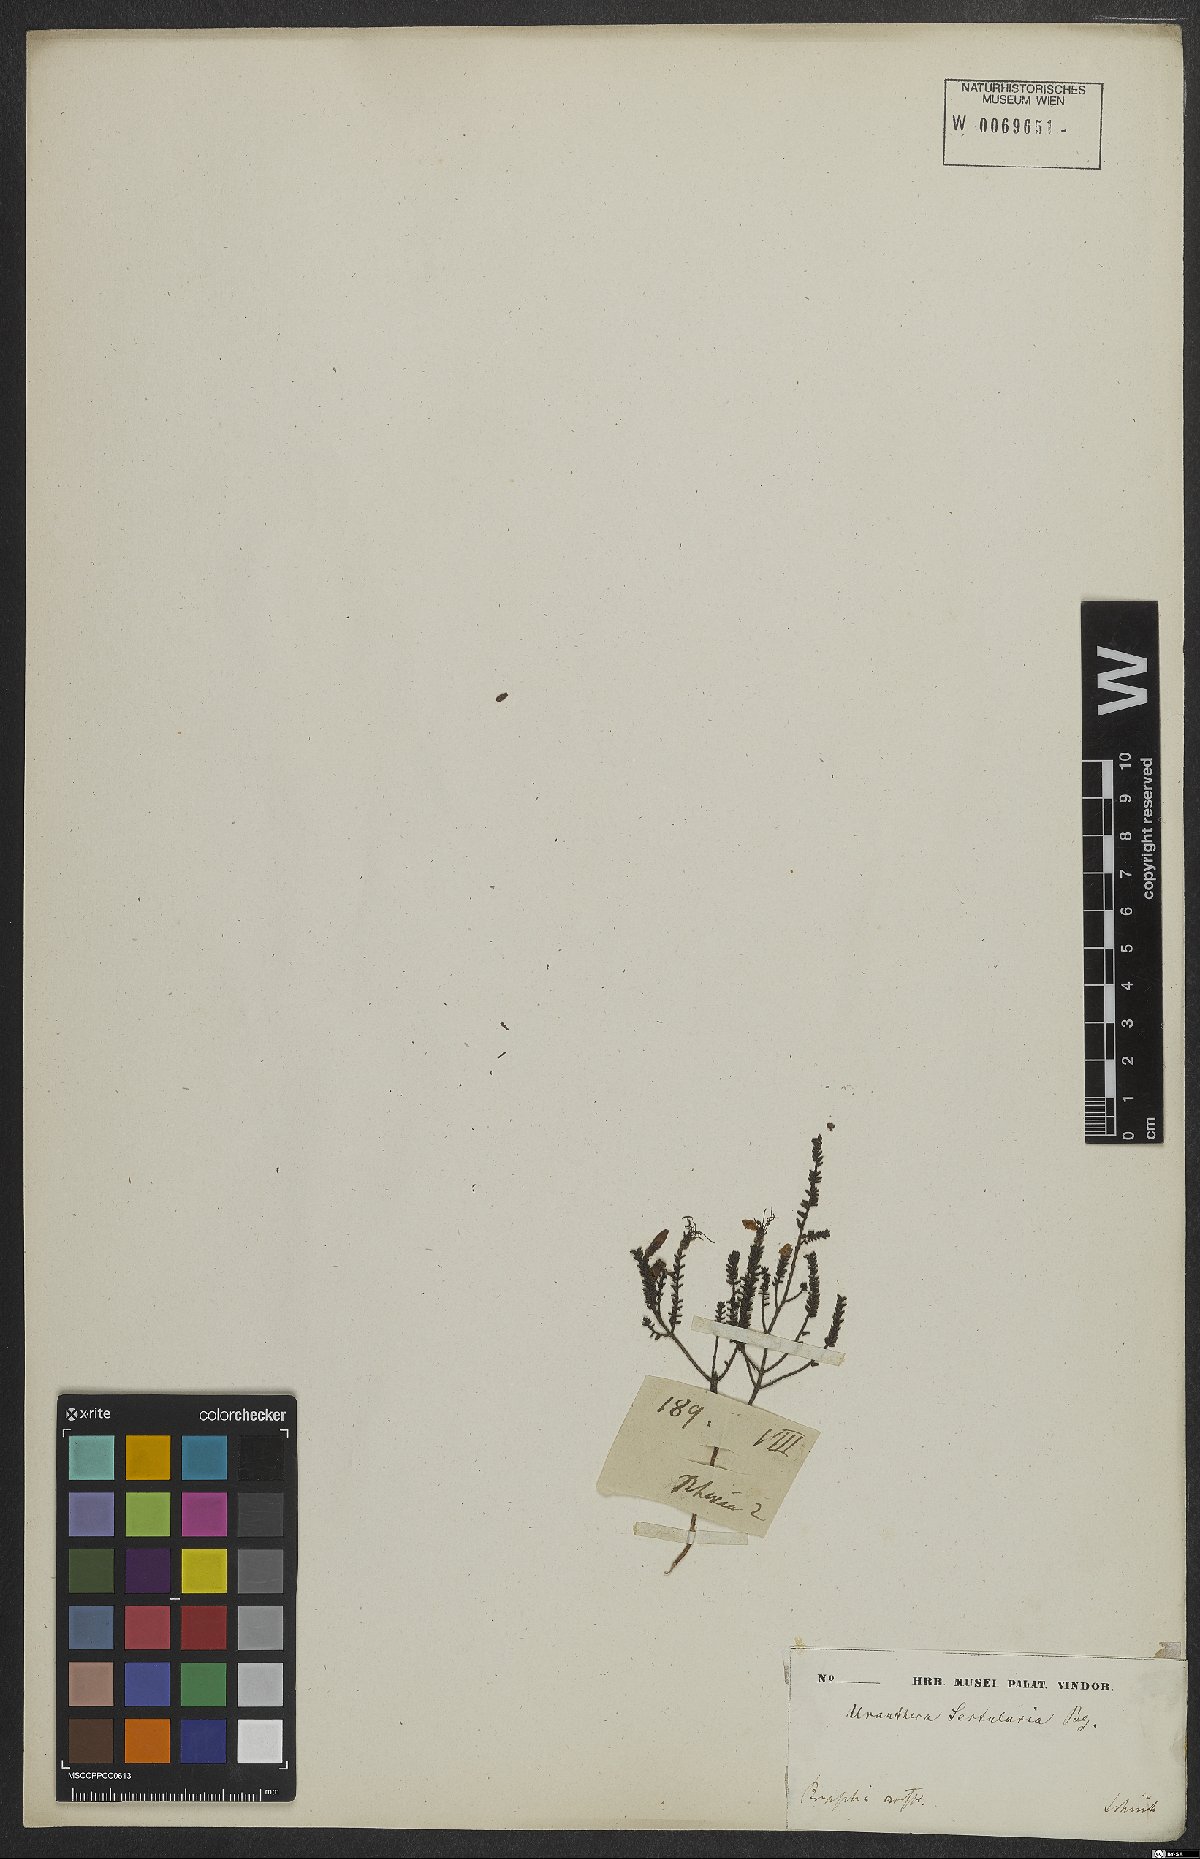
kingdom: Plantae
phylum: Tracheophyta
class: Magnoliopsida
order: Myrtales
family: Melastomataceae
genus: Fritzschia
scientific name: Fritzschia sertularia
